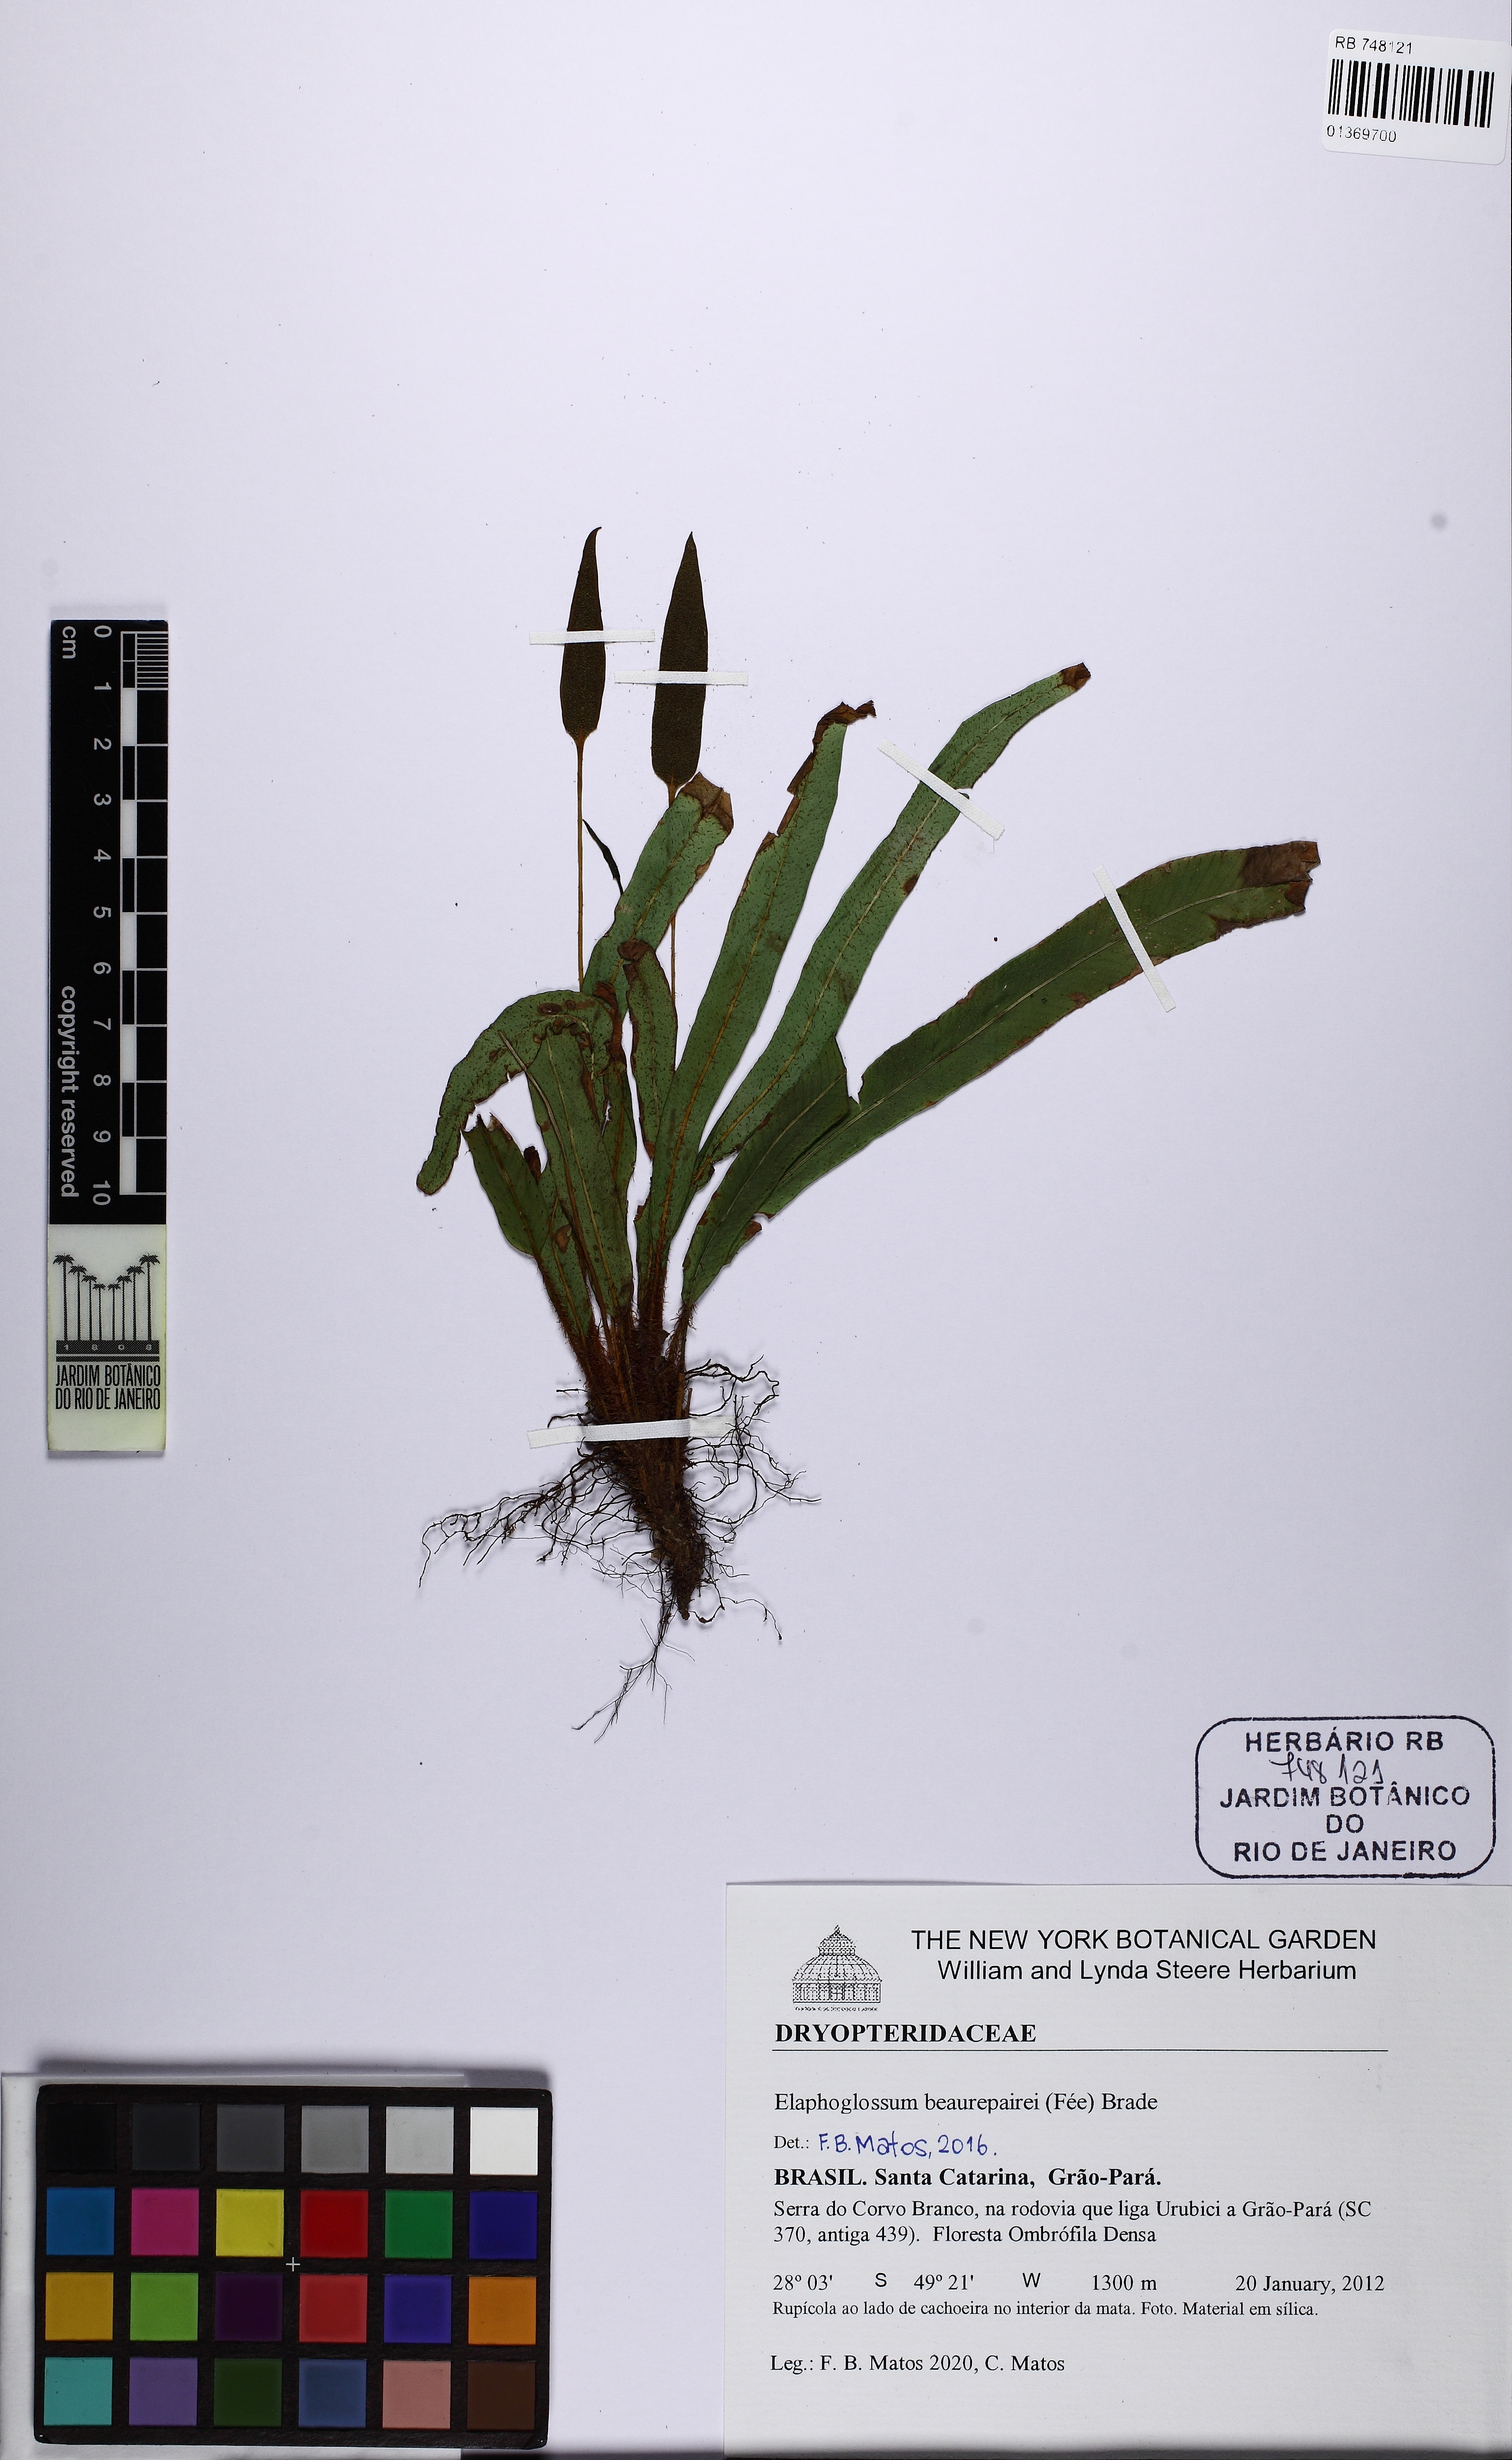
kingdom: Plantae
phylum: Tracheophyta
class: Polypodiopsida
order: Polypodiales
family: Dryopteridaceae
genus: Elaphoglossum
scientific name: Elaphoglossum beaurepairei
